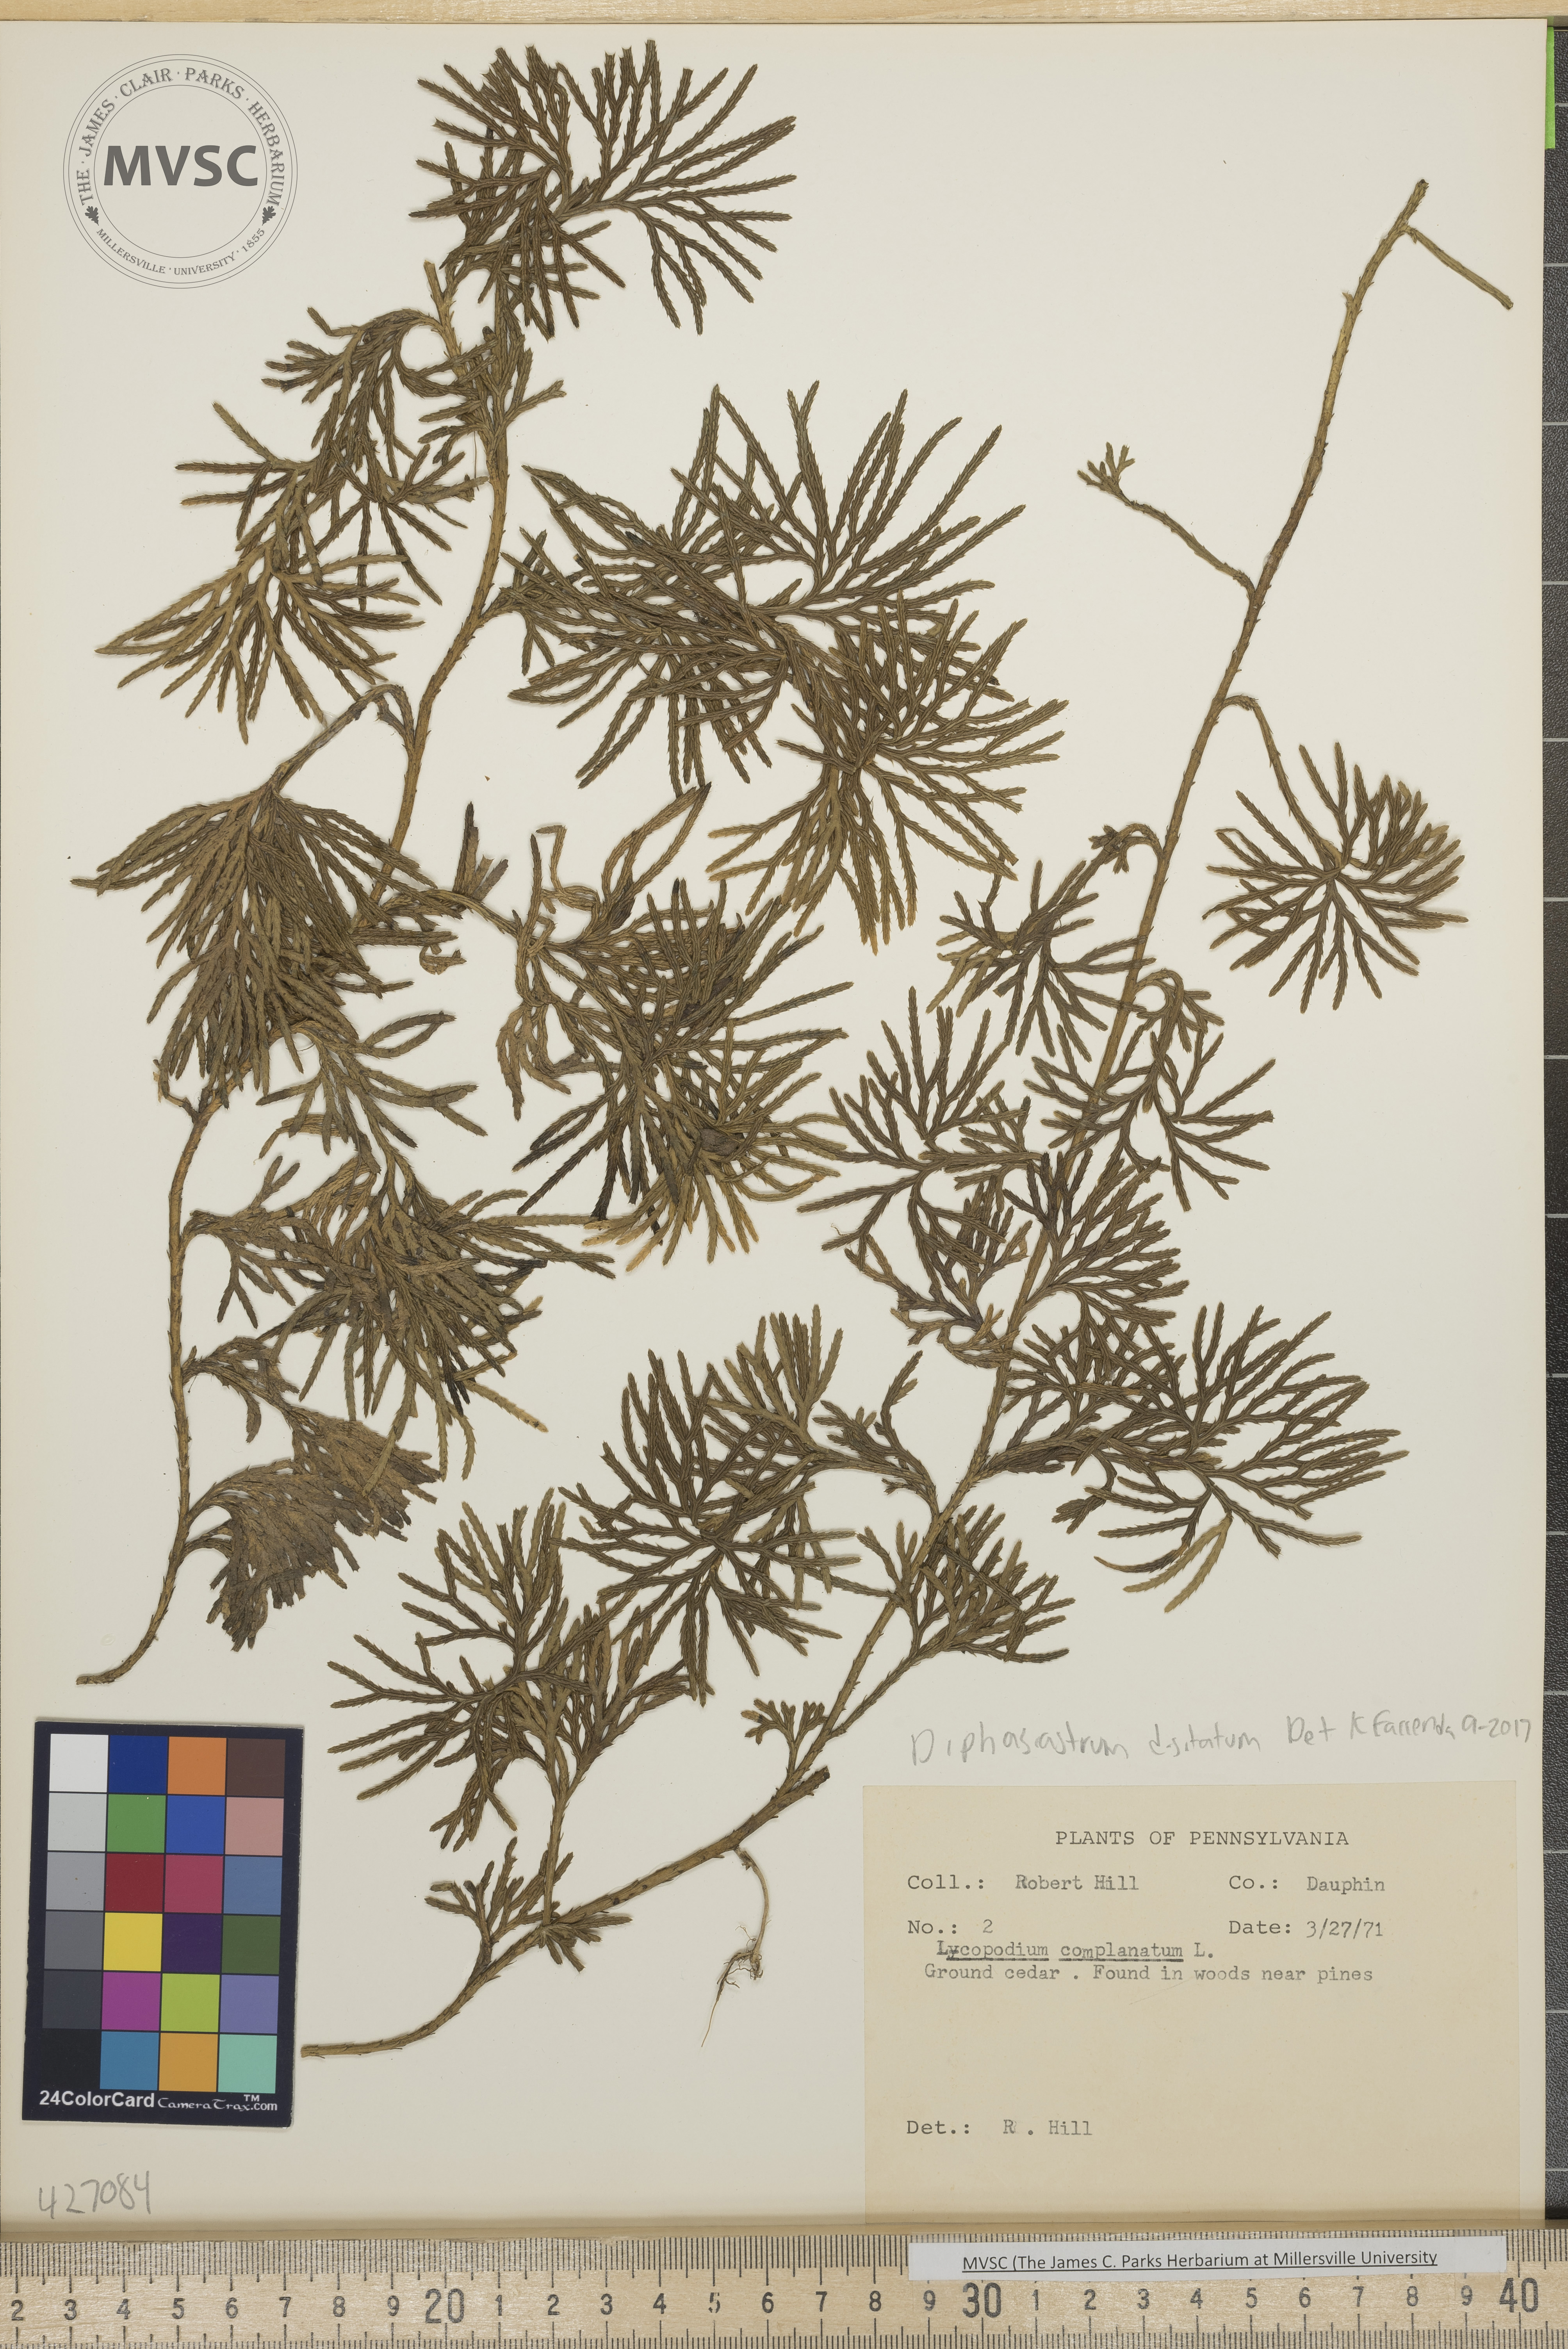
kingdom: Plantae
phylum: Tracheophyta
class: Lycopodiopsida
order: Lycopodiales
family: Lycopodiaceae
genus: Diphasiastrum
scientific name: Diphasiastrum digitatum
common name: Southern running-pine
